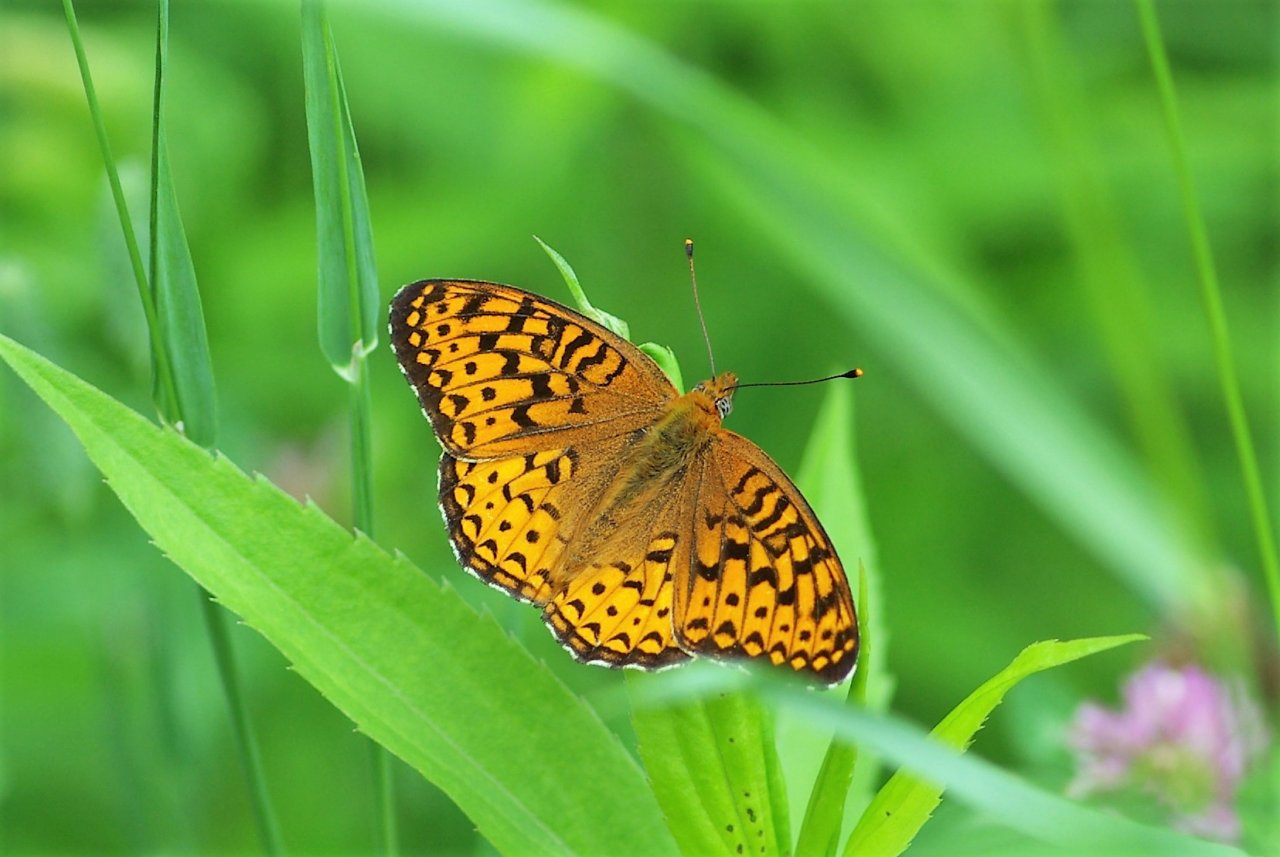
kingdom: Animalia
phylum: Arthropoda
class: Insecta
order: Lepidoptera
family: Nymphalidae
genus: Speyeria
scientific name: Speyeria atlantis
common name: Atlantis Fritillary
